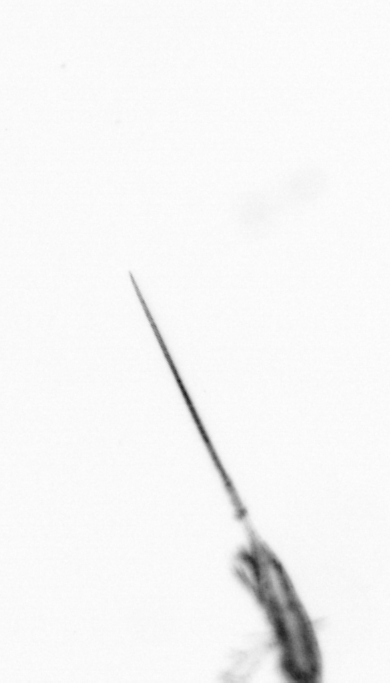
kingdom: Animalia
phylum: Arthropoda
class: Copepoda
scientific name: Copepoda
